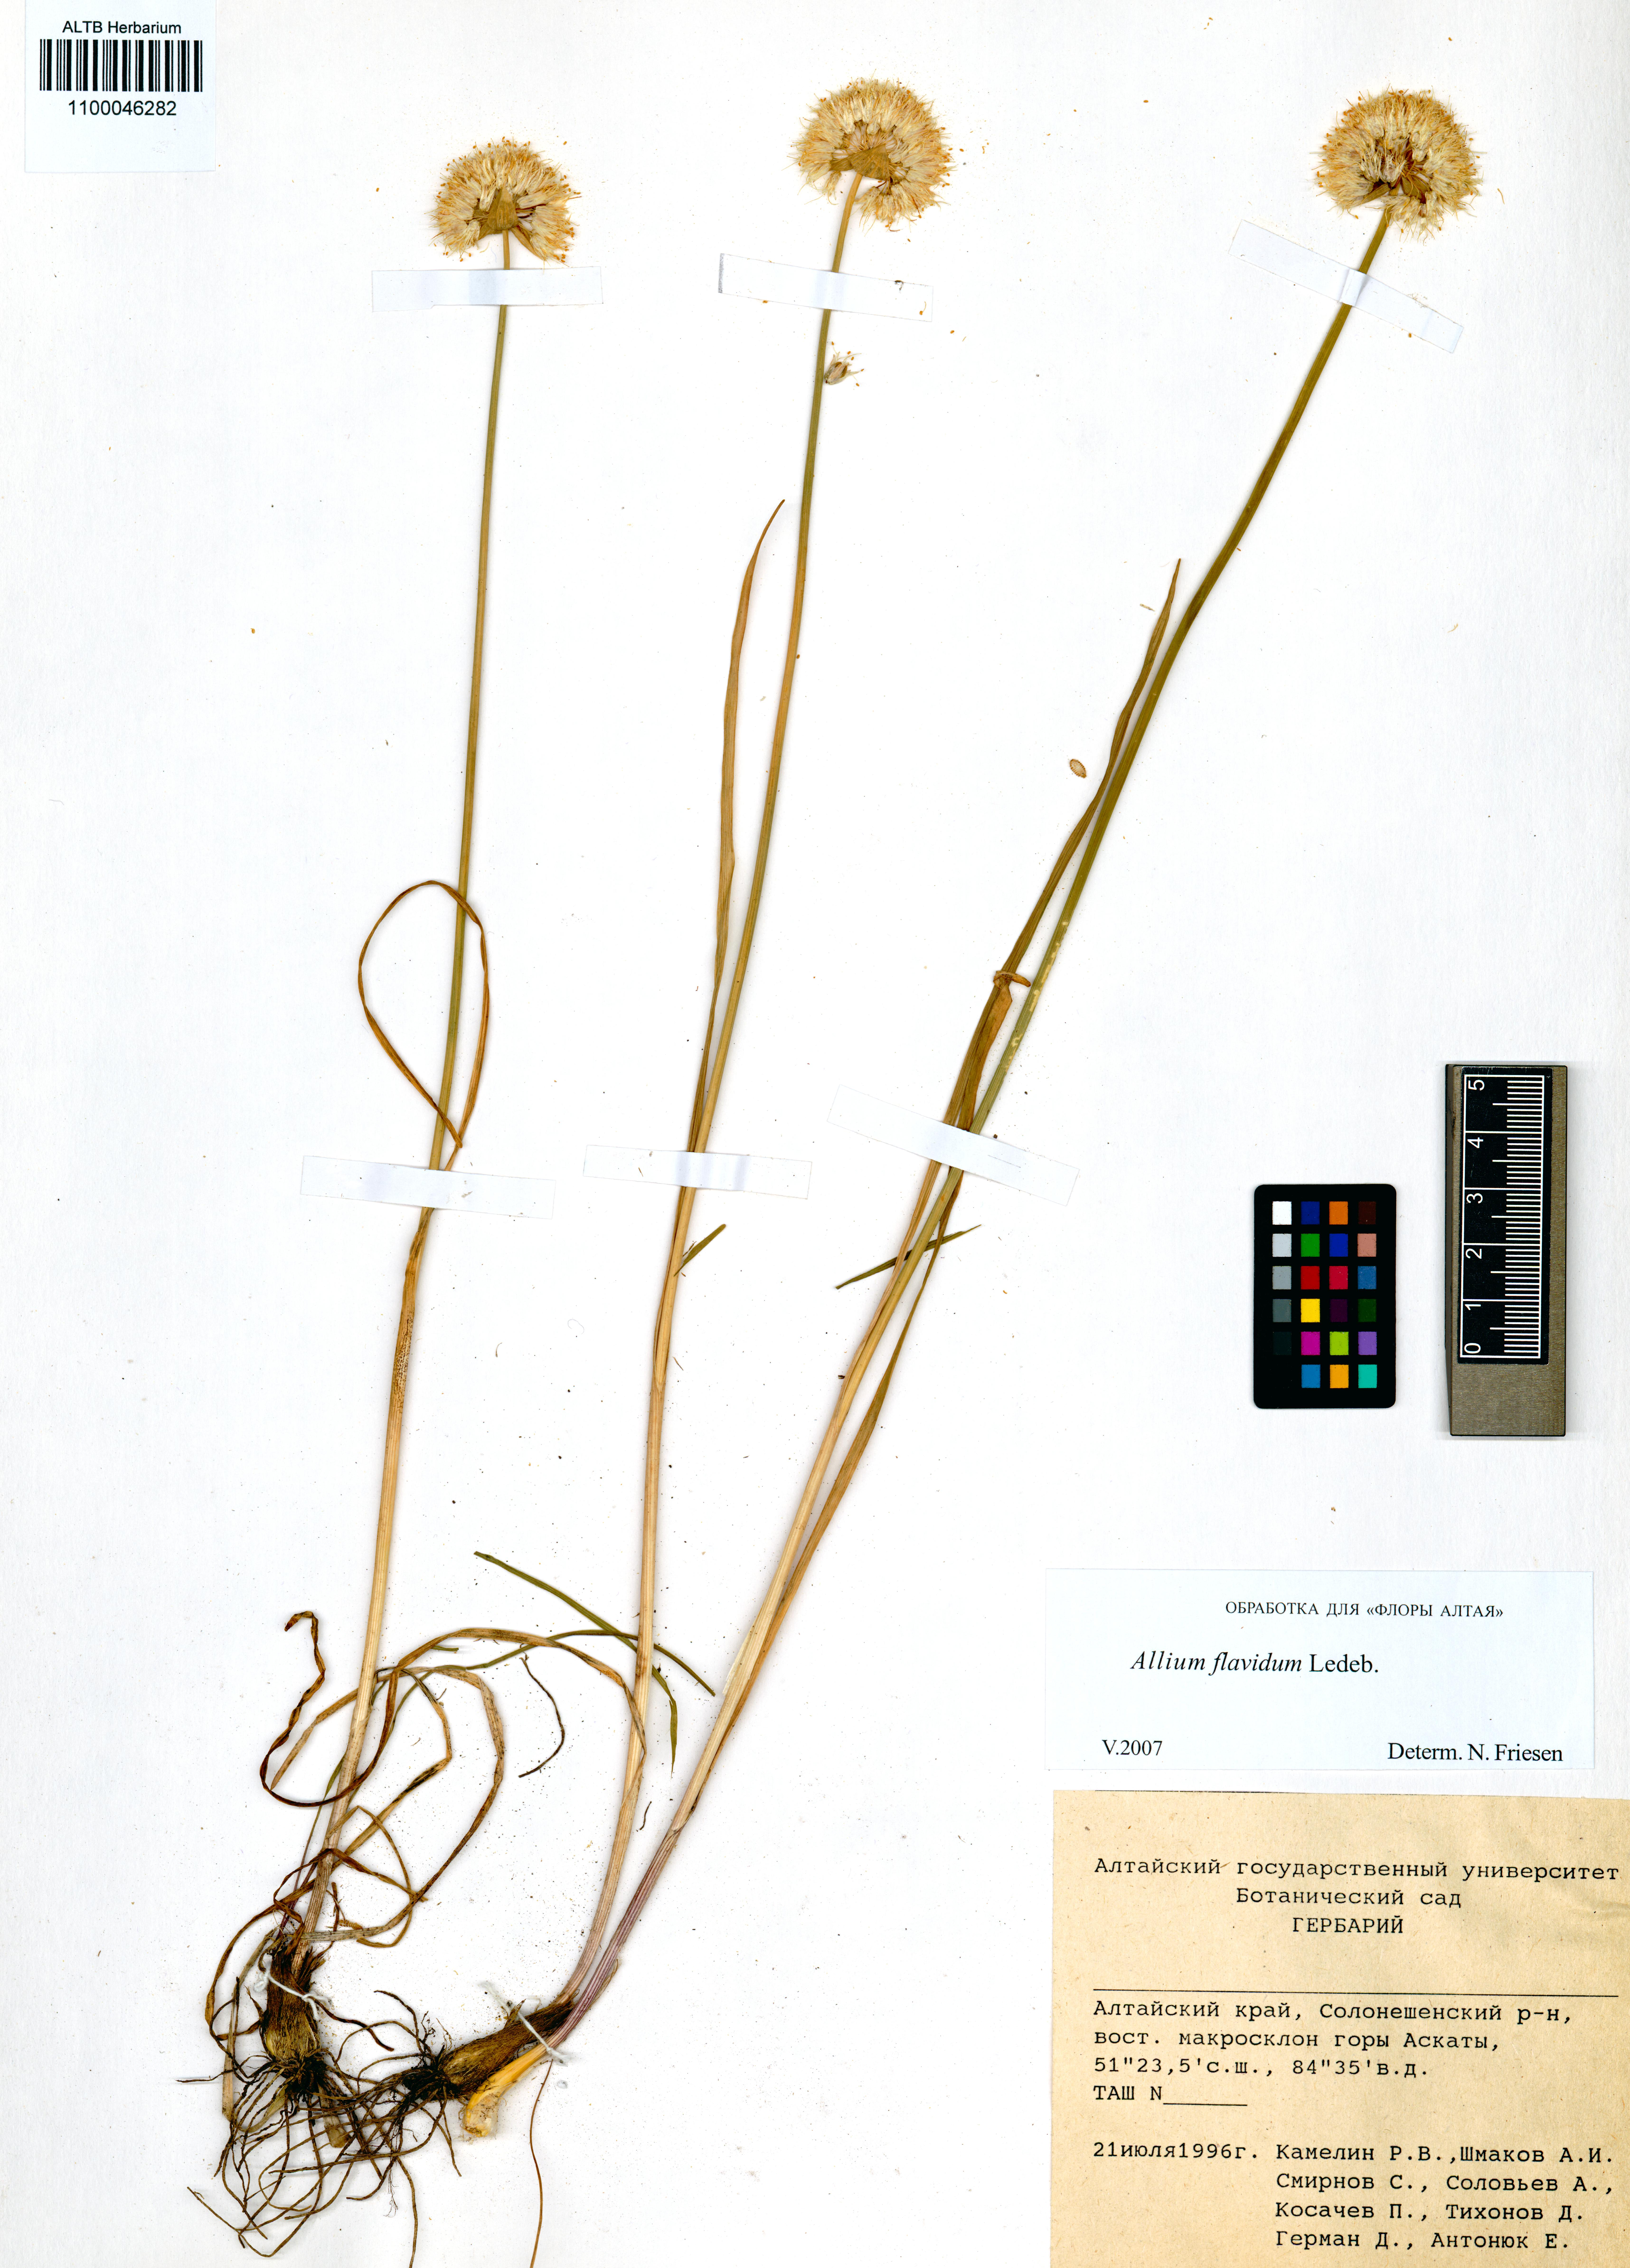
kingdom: Plantae
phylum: Tracheophyta
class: Liliopsida
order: Asparagales
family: Amaryllidaceae
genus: Allium
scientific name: Allium flavidum
